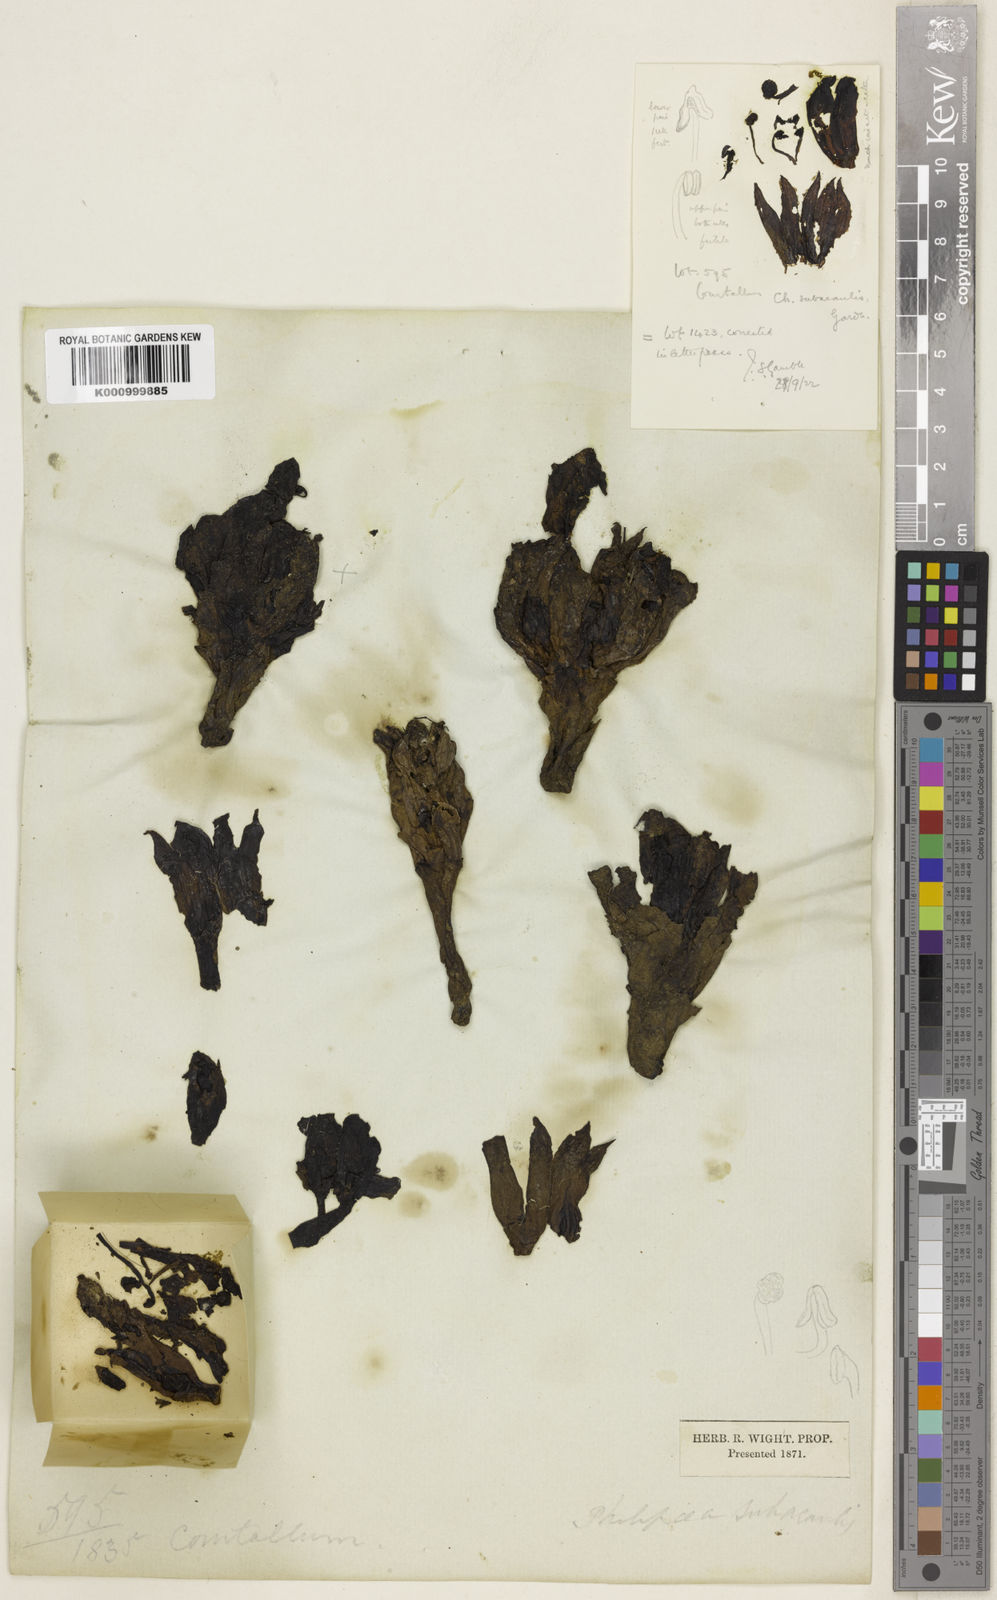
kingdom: Plantae
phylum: Tracheophyta
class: Magnoliopsida
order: Lamiales
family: Orobanchaceae
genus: Christisonia
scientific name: Christisonia subacaulis
